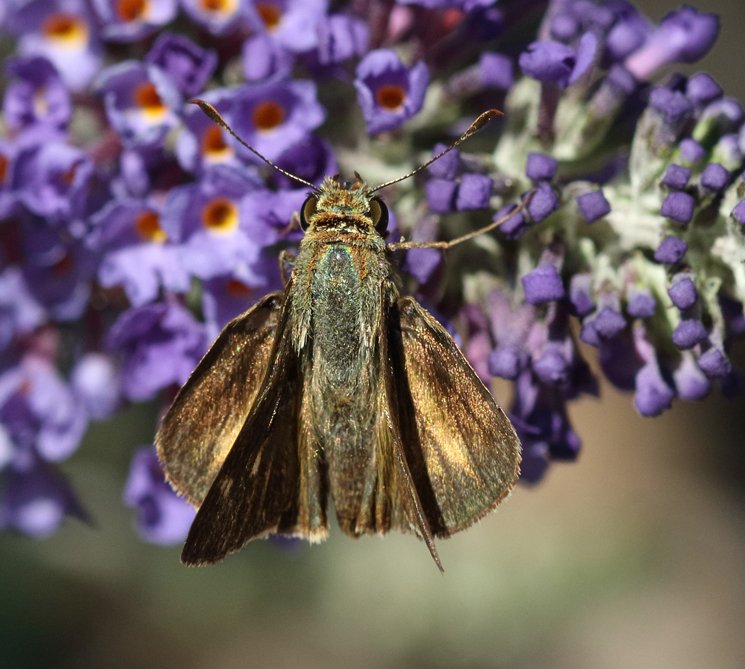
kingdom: Animalia
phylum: Arthropoda
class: Insecta
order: Lepidoptera
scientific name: Lepidoptera
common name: Butterflies
